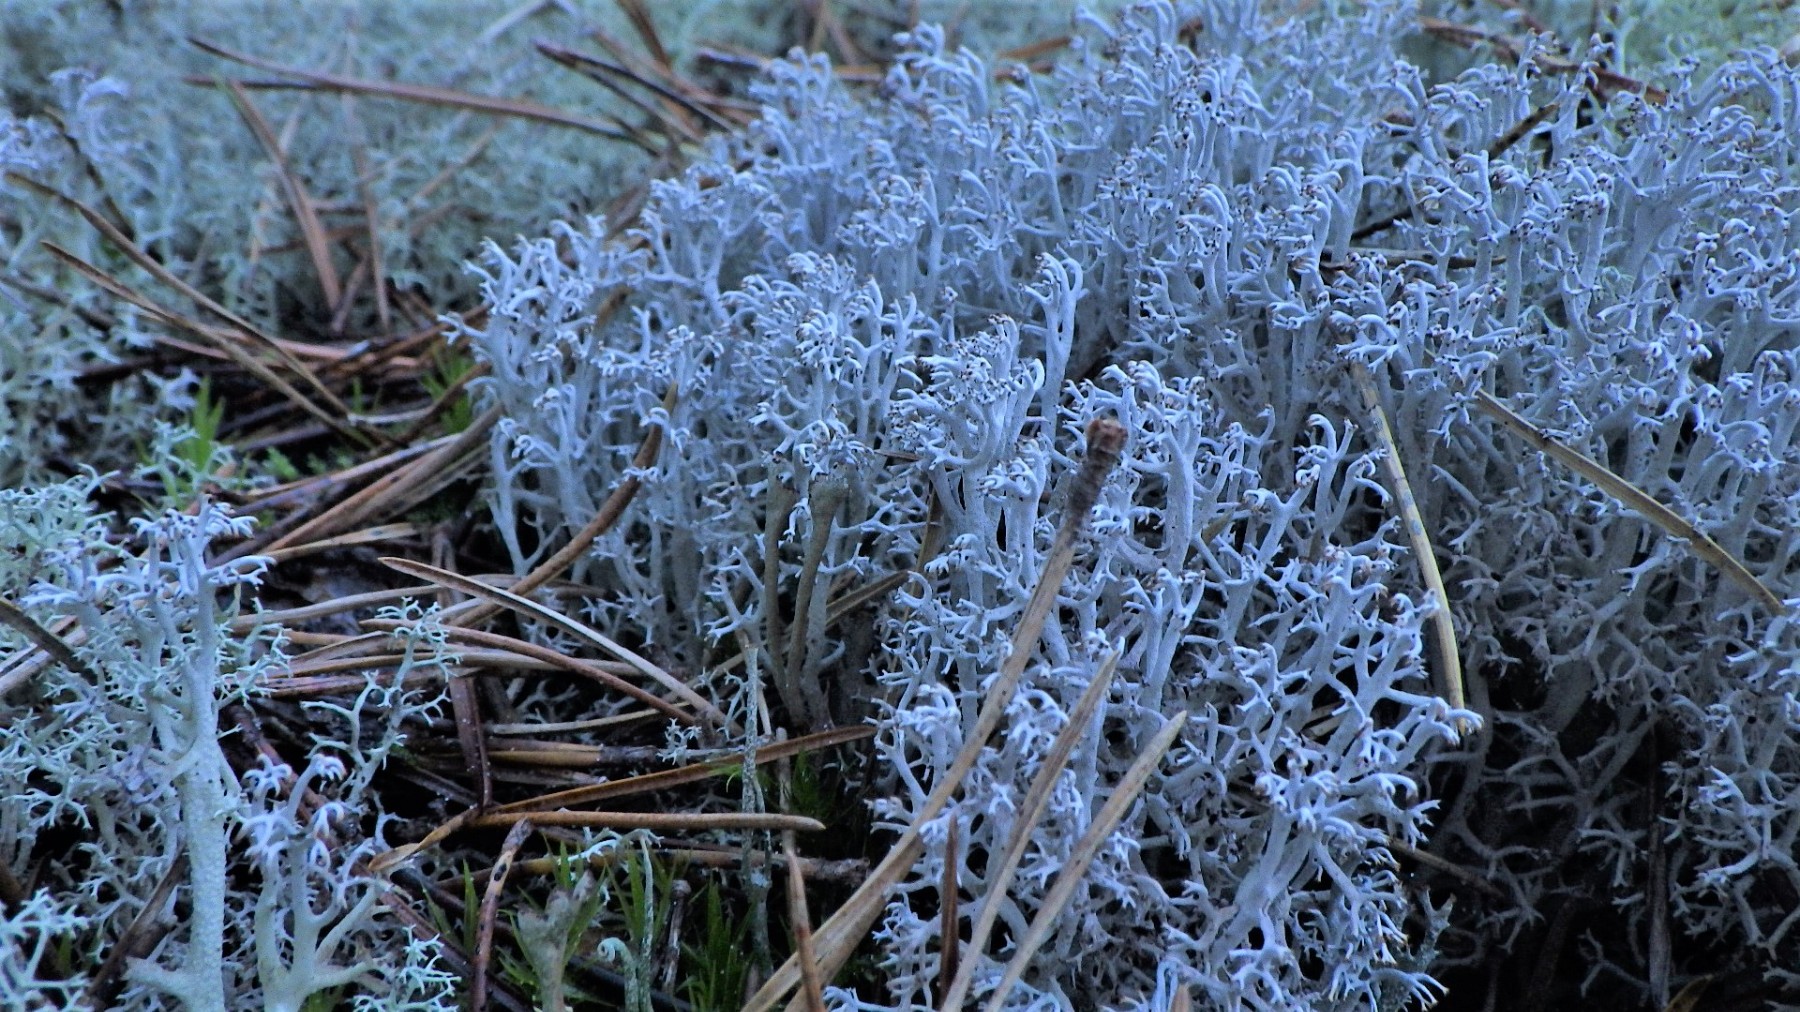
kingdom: Fungi
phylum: Ascomycota
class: Lecanoromycetes
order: Lecanorales
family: Cladoniaceae
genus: Cladonia
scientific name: Cladonia rangiferina
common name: askegrå rensdyrlav
